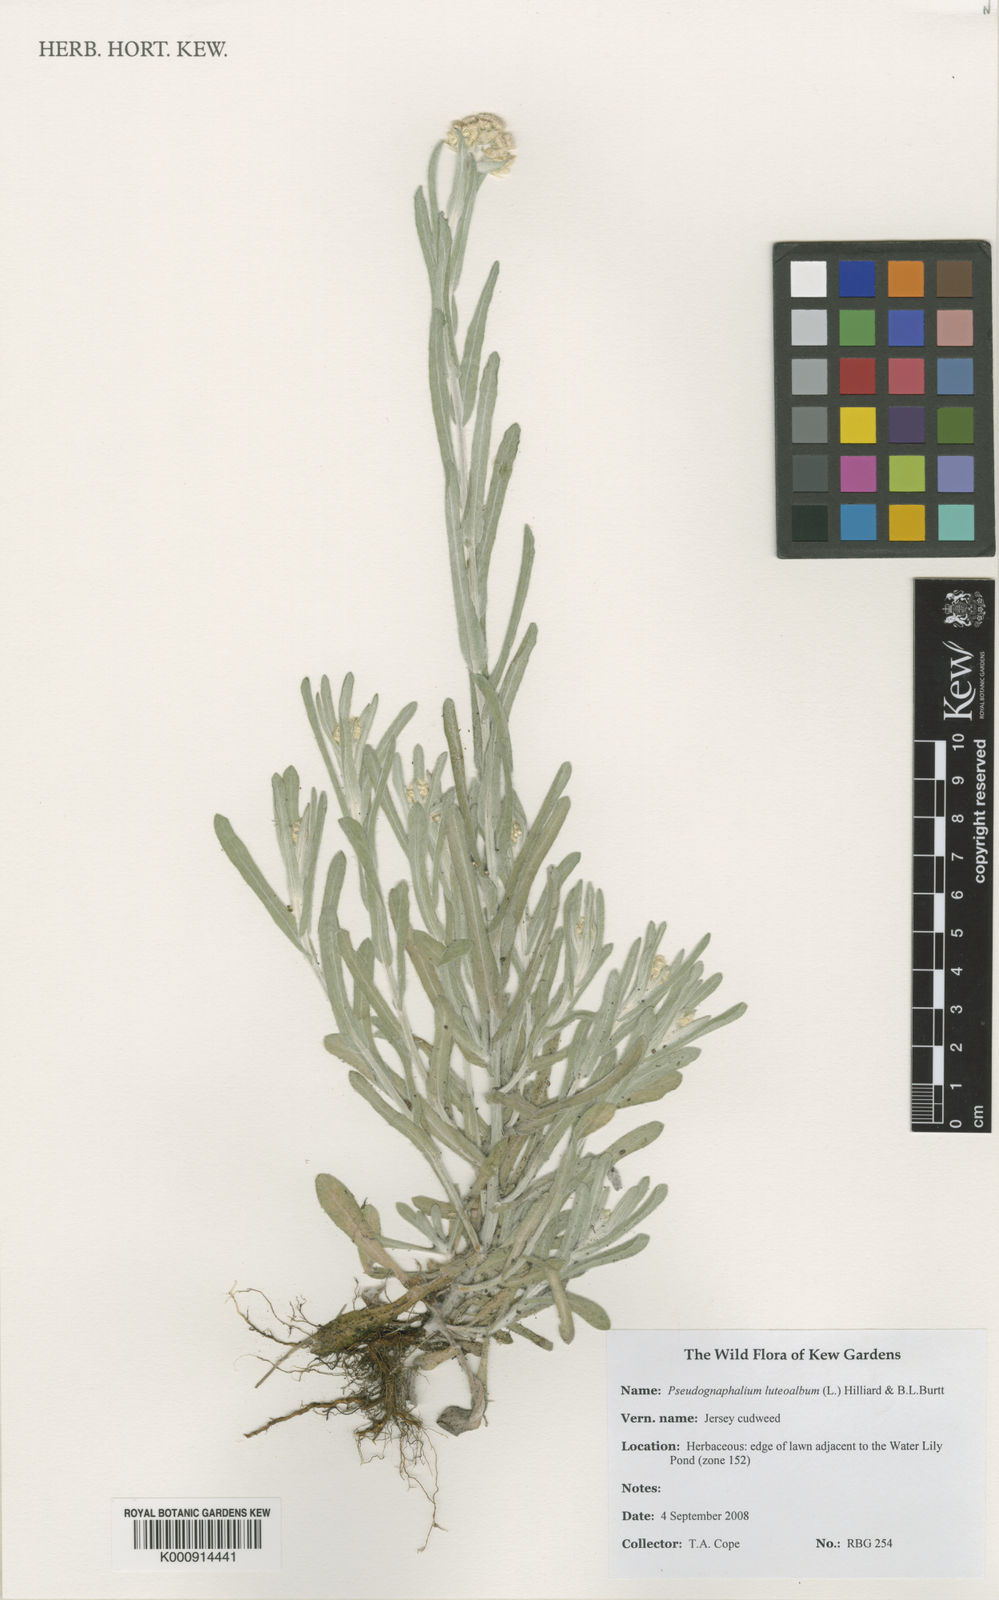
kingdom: Plantae
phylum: Tracheophyta
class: Magnoliopsida
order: Asterales
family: Asteraceae
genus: Helichrysum
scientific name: Helichrysum luteoalbum
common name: Daisy
